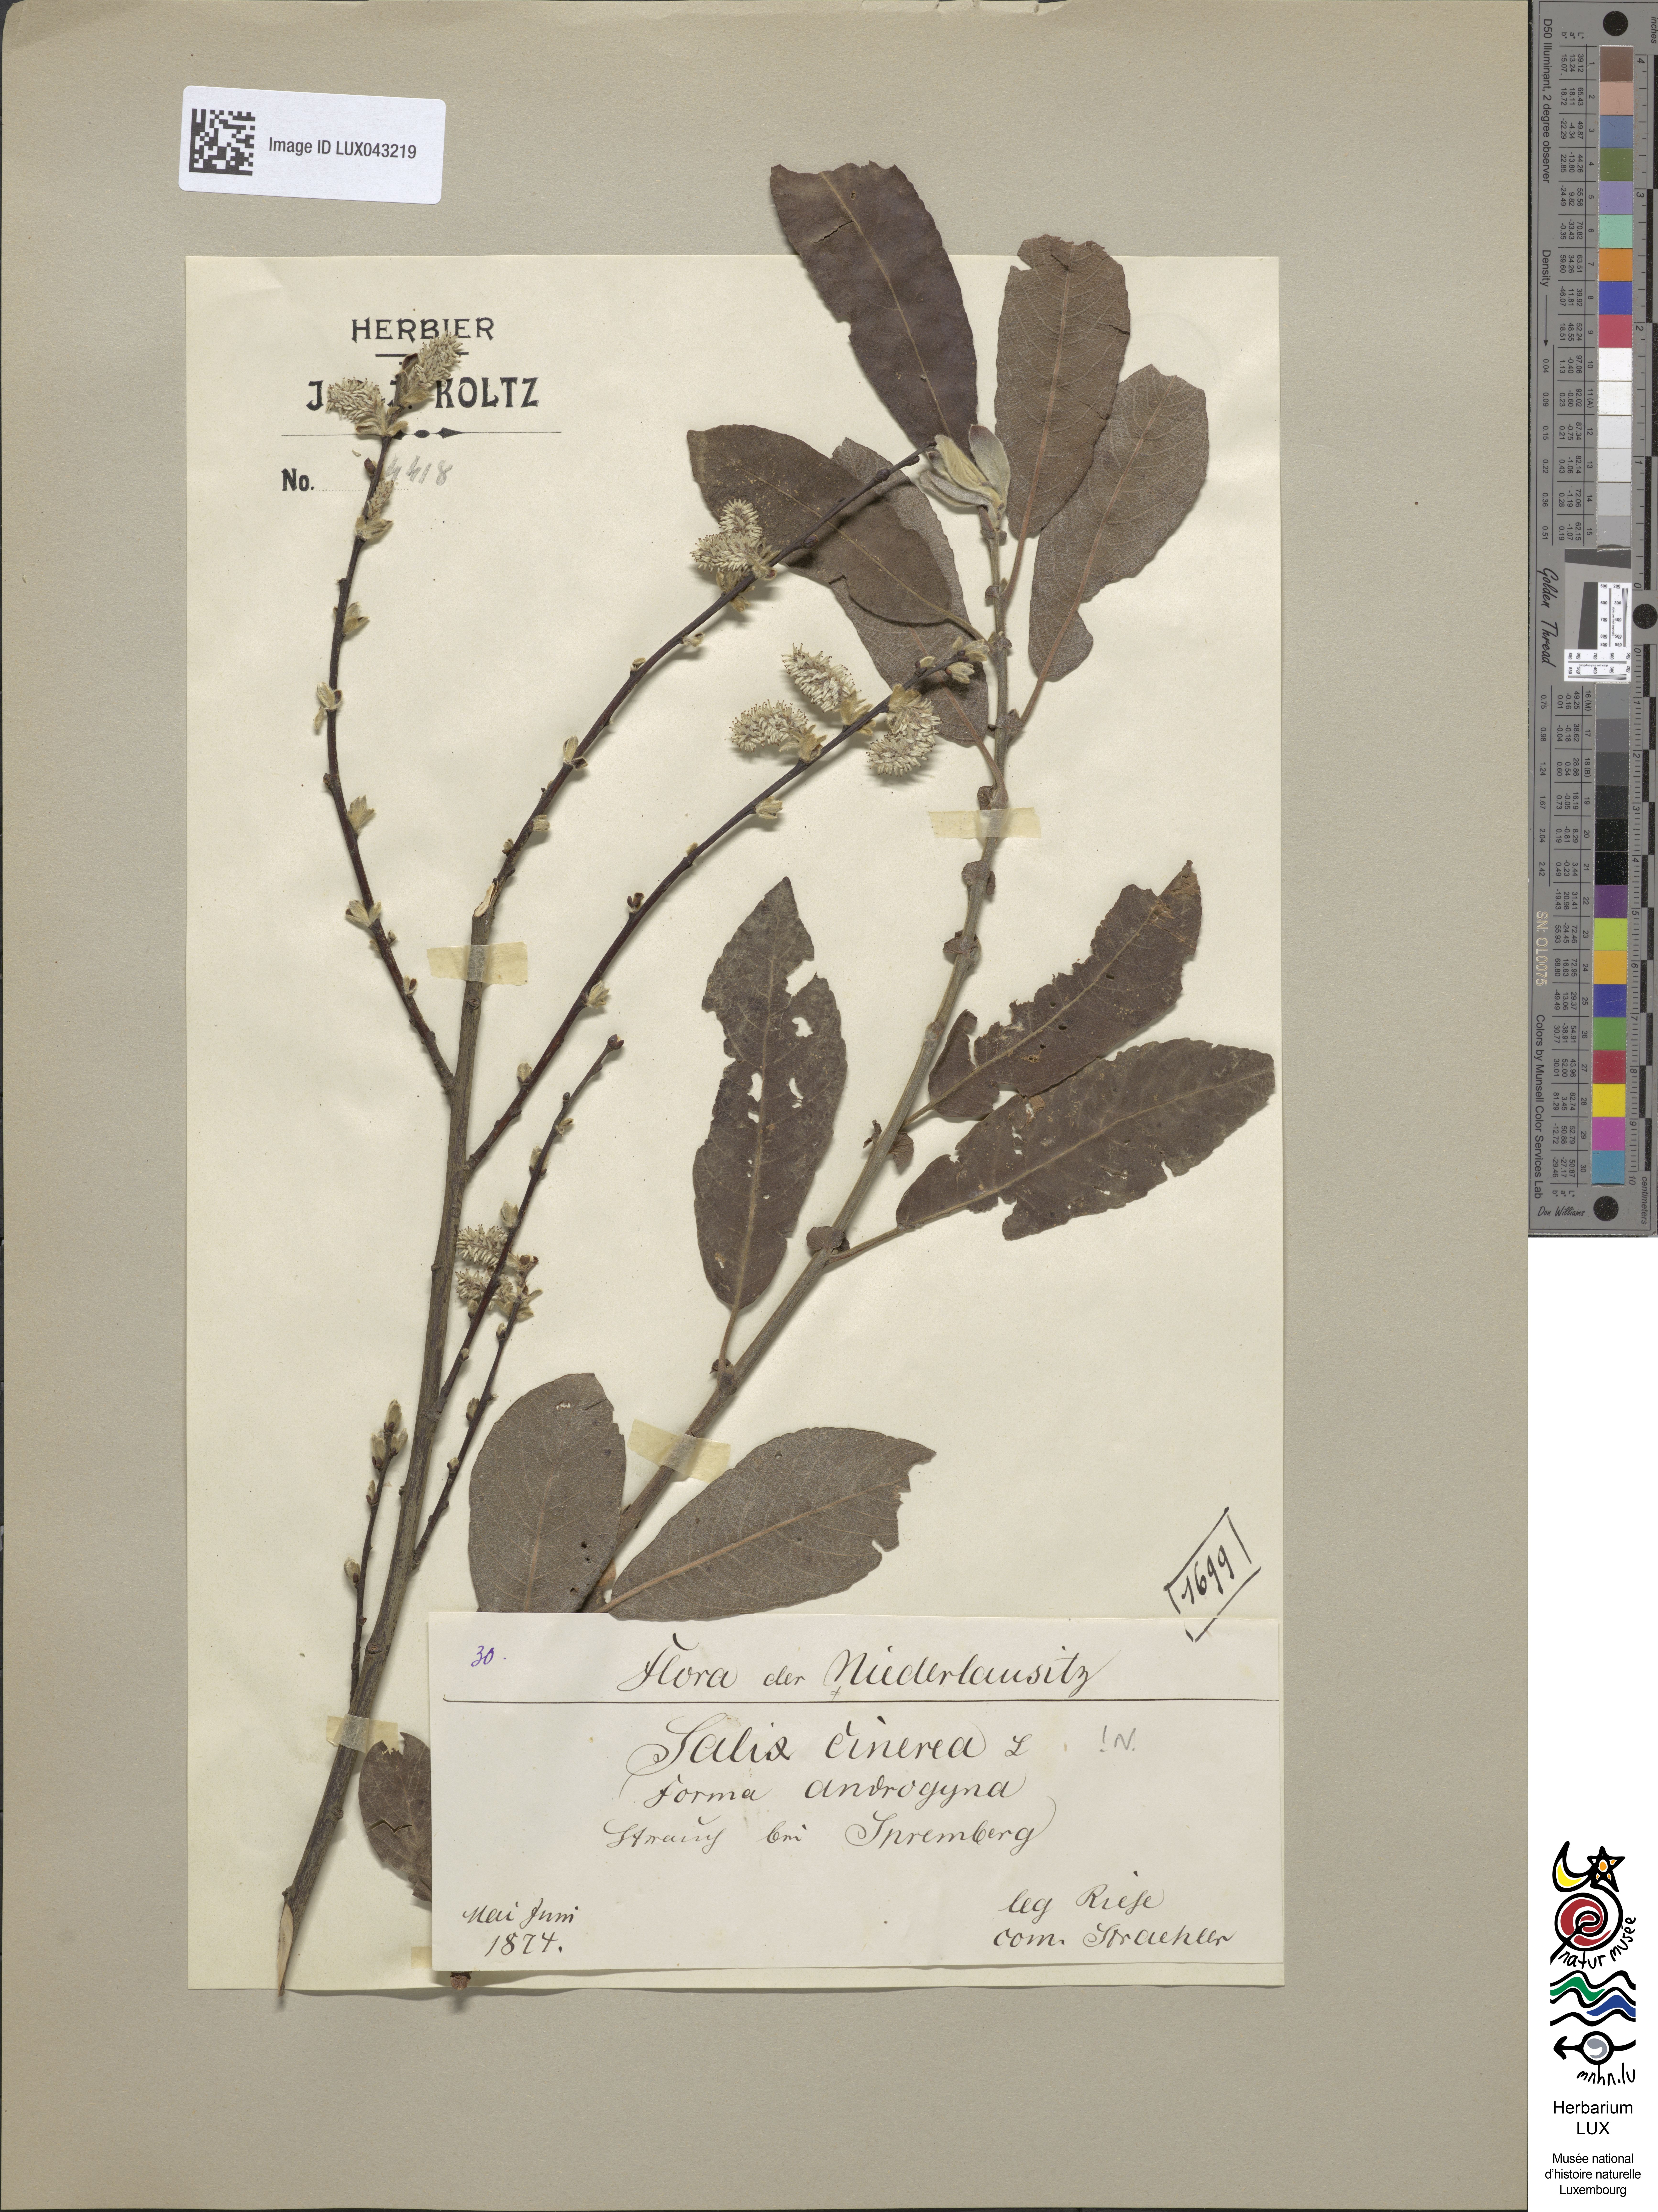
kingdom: Plantae
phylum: Tracheophyta
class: Magnoliopsida
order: Malpighiales
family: Salicaceae
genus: Salix
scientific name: Salix cinerea
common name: Common sallow
